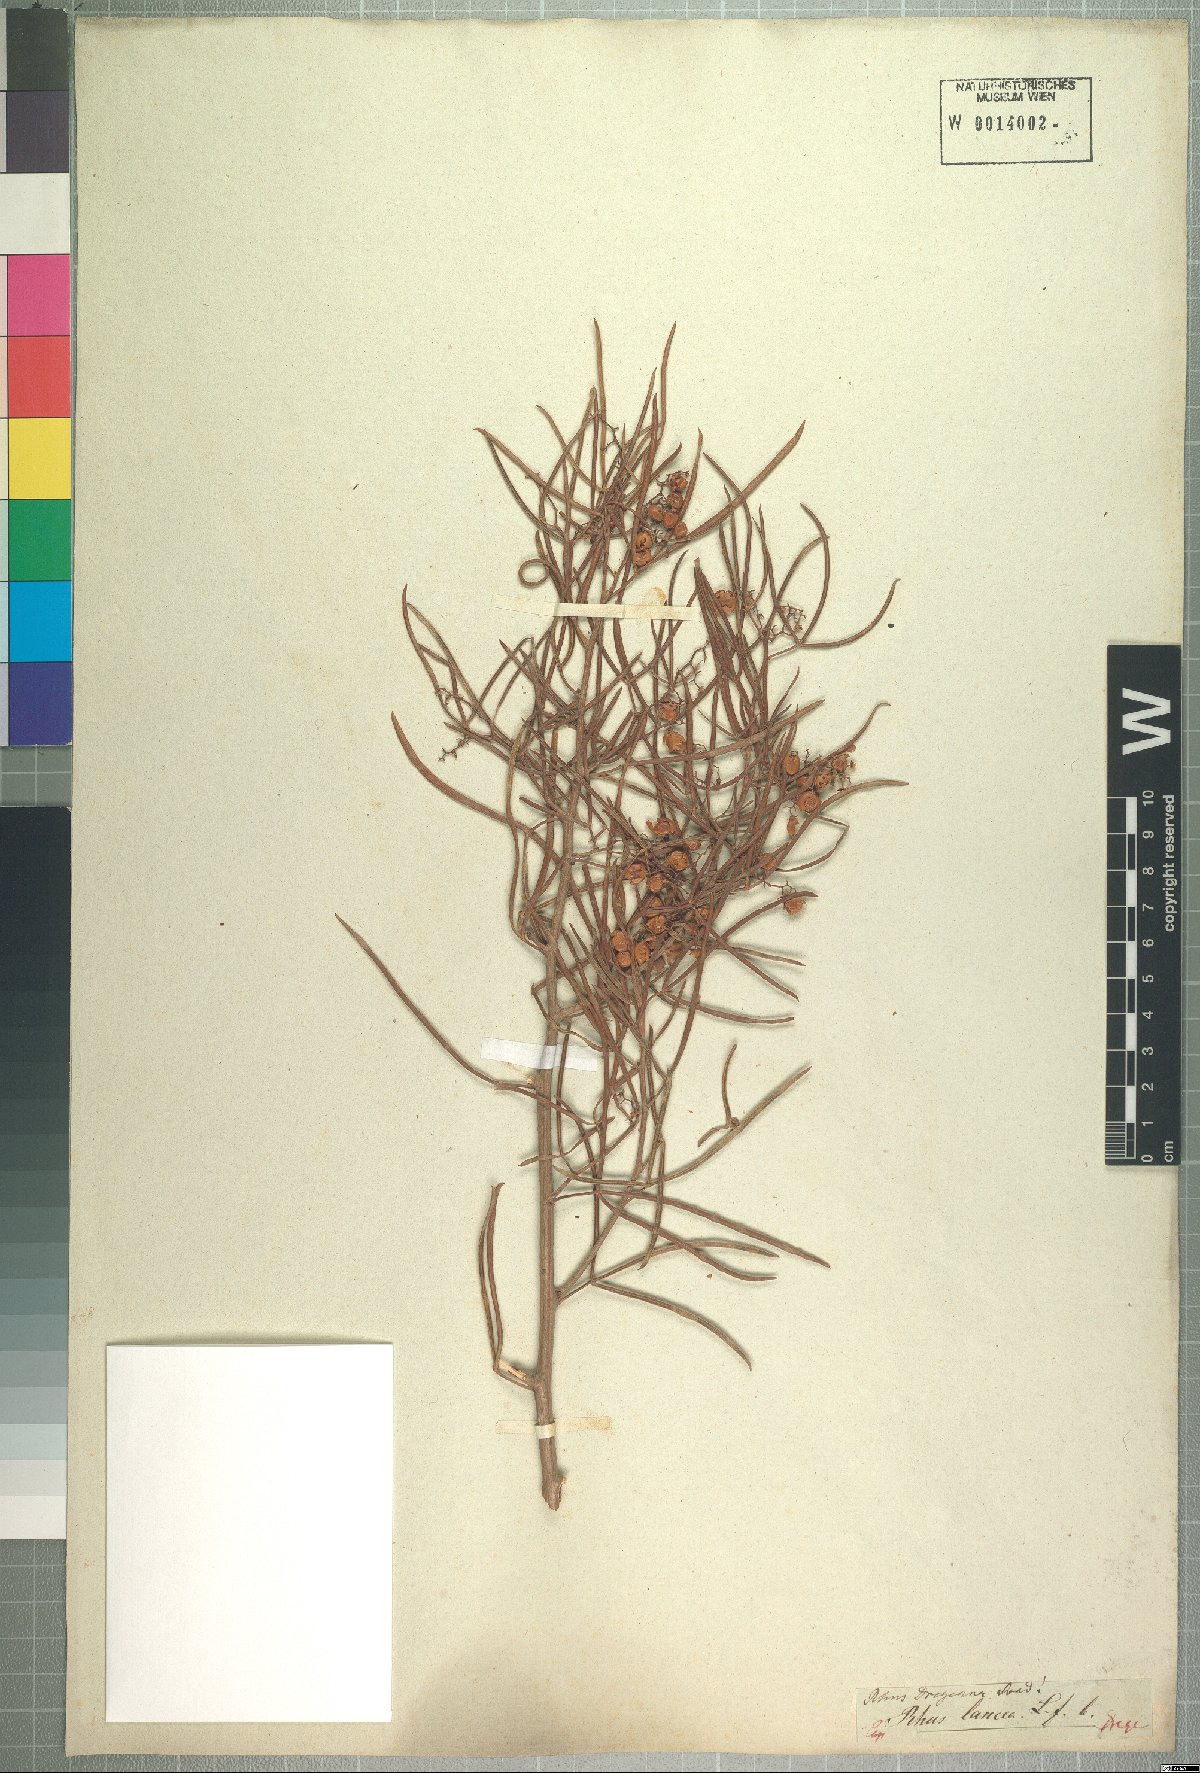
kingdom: Plantae
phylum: Tracheophyta
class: Magnoliopsida
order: Sapindales
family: Anacardiaceae
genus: Searsia
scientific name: Searsia dregeana
